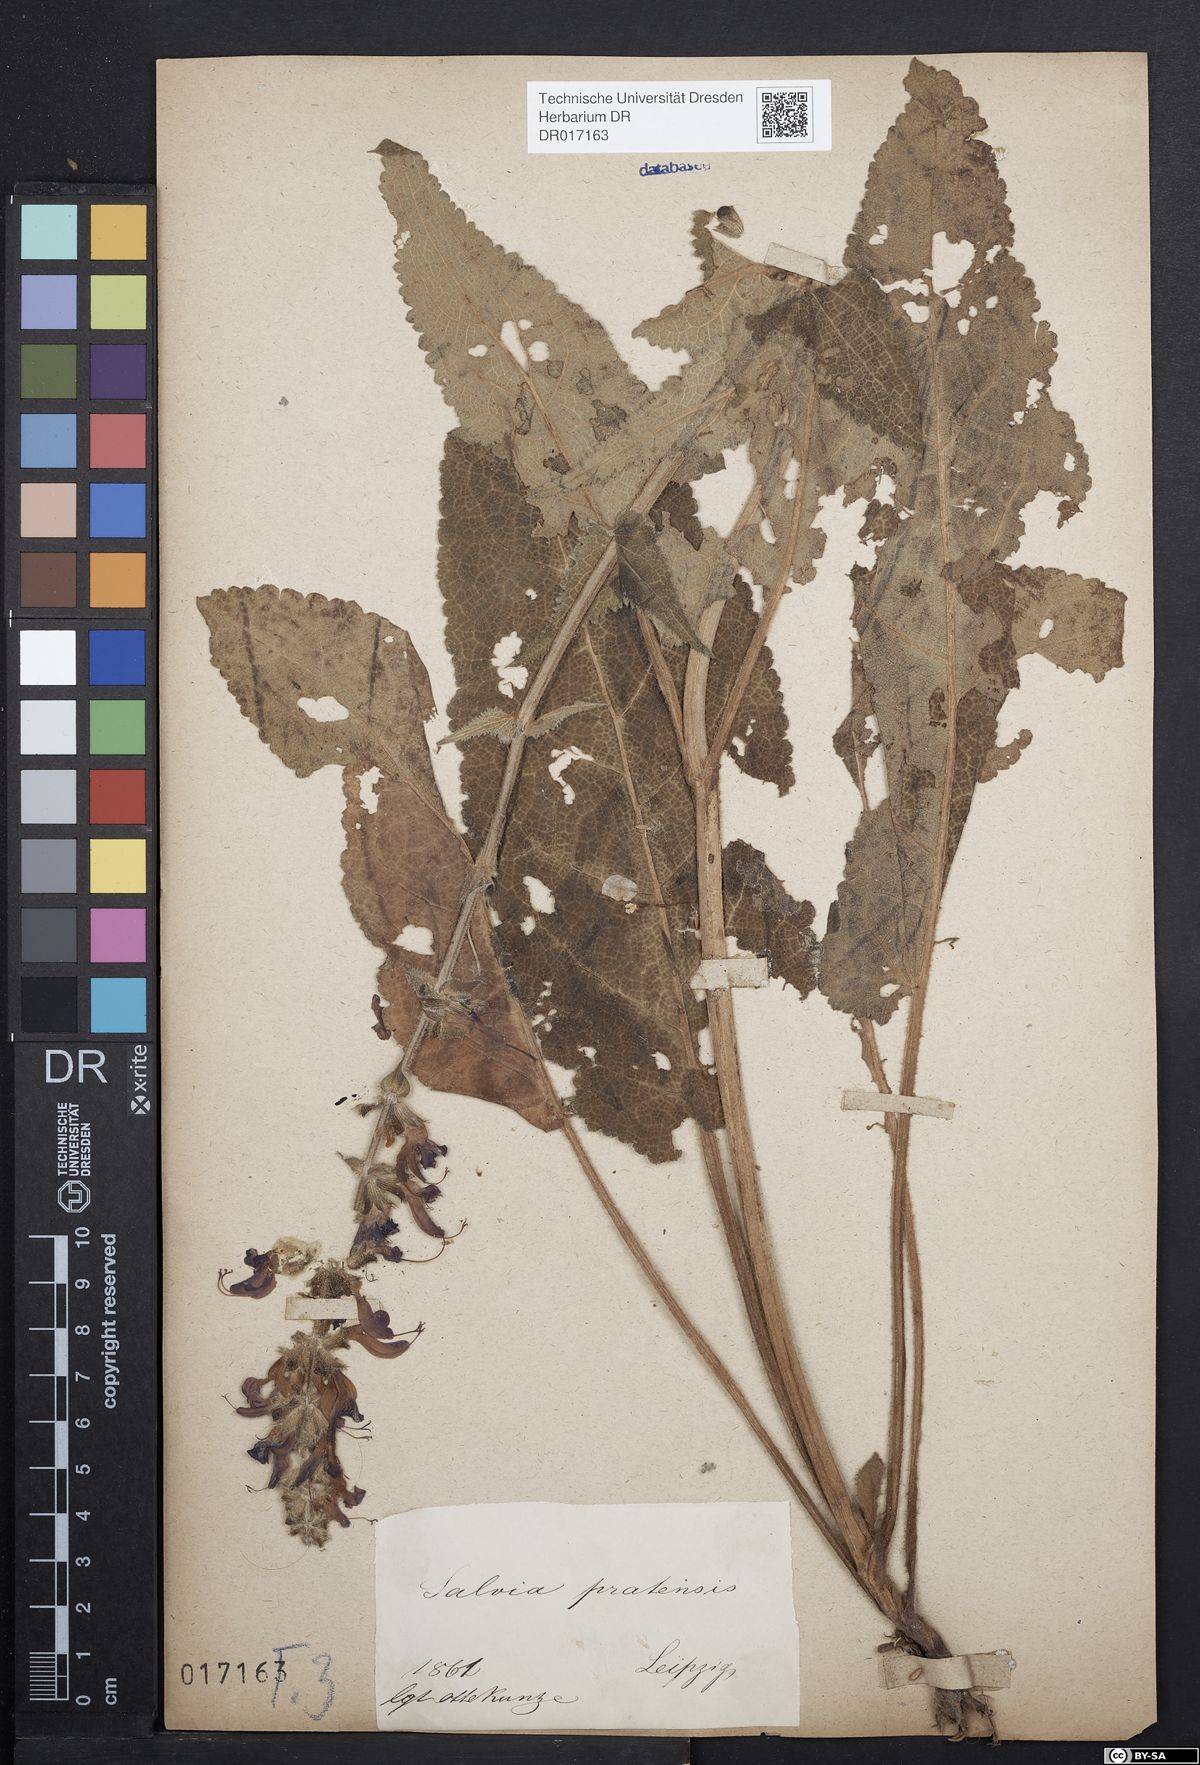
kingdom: Plantae
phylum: Tracheophyta
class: Magnoliopsida
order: Lamiales
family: Lamiaceae
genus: Salvia
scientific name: Salvia pratensis
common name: Meadow sage
